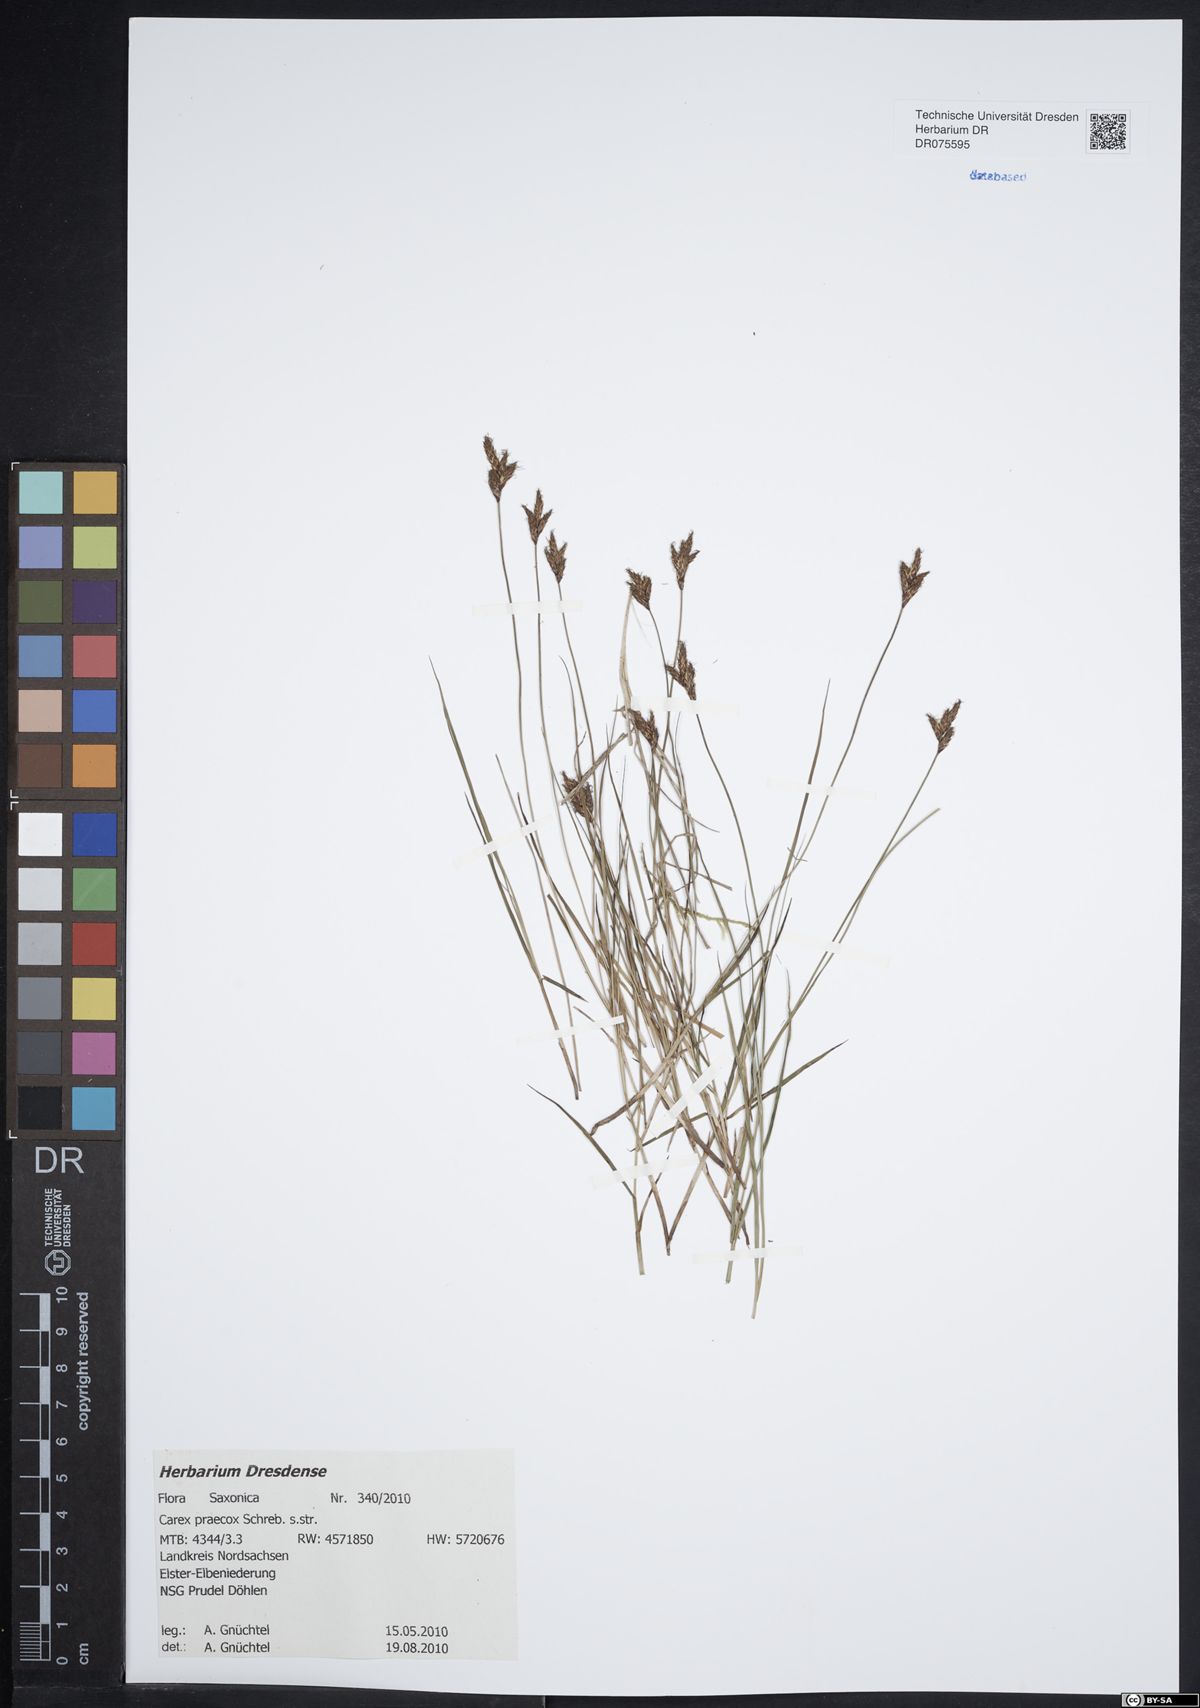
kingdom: Plantae
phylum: Tracheophyta
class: Liliopsida
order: Poales
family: Cyperaceae
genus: Carex
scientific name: Carex praecox
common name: Early sedge
